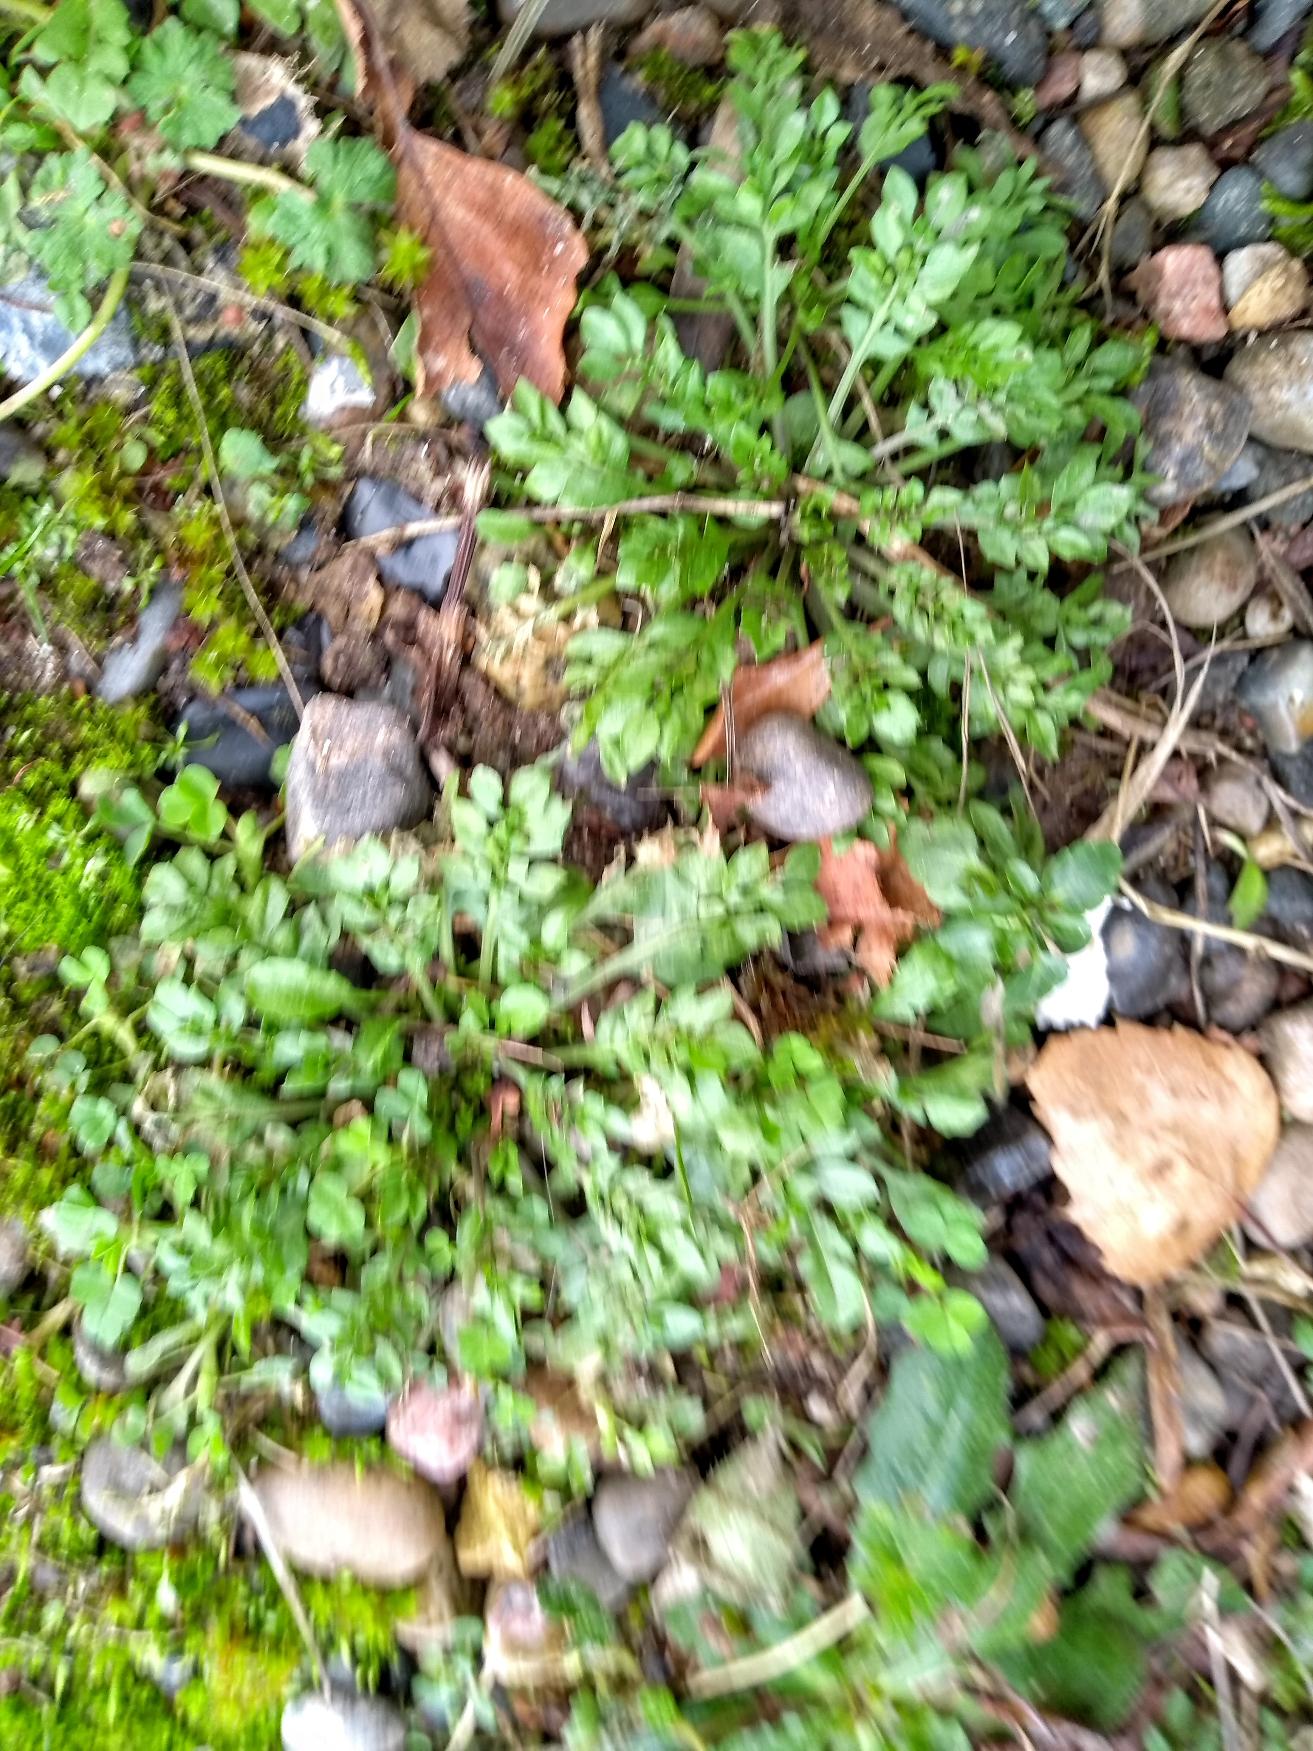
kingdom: Plantae
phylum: Tracheophyta
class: Magnoliopsida
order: Brassicales
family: Brassicaceae
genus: Capsella
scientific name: Capsella bursa-pastoris
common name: Hyrdetaske
